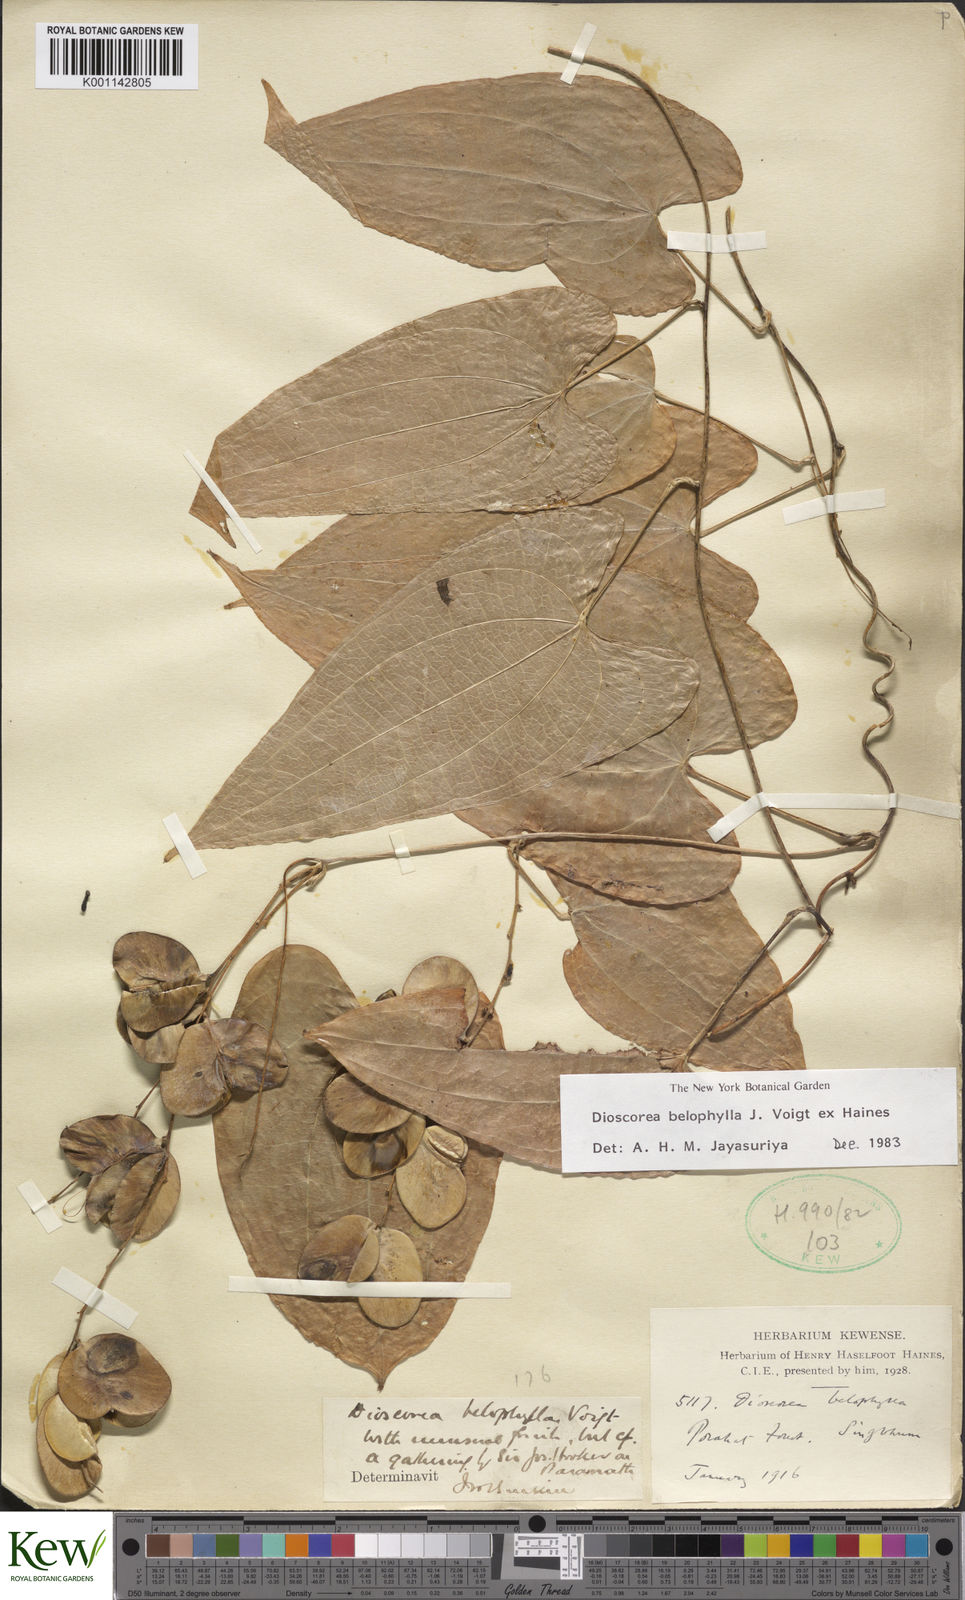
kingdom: Plantae
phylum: Tracheophyta
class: Liliopsida
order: Dioscoreales
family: Dioscoreaceae
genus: Dioscorea
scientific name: Dioscorea belophylla
